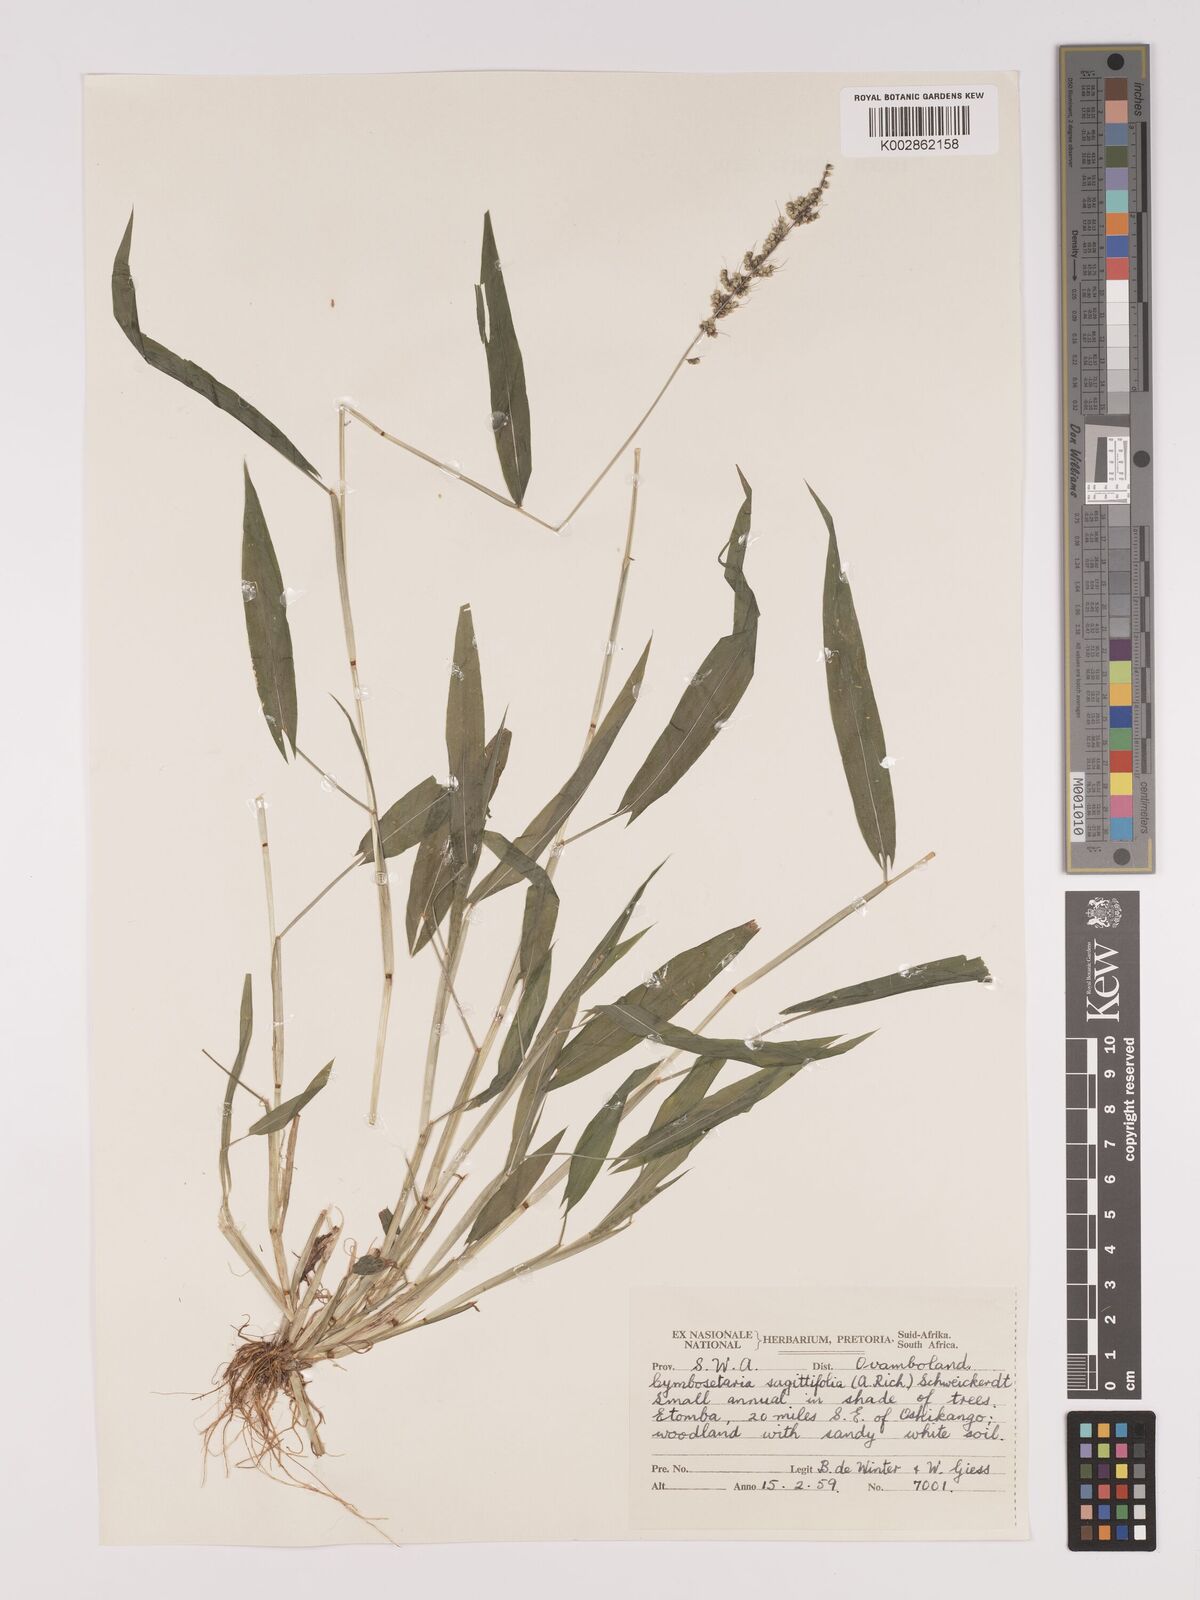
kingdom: Plantae
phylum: Tracheophyta
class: Liliopsida
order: Poales
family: Poaceae
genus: Setaria
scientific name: Setaria sagittifolia
